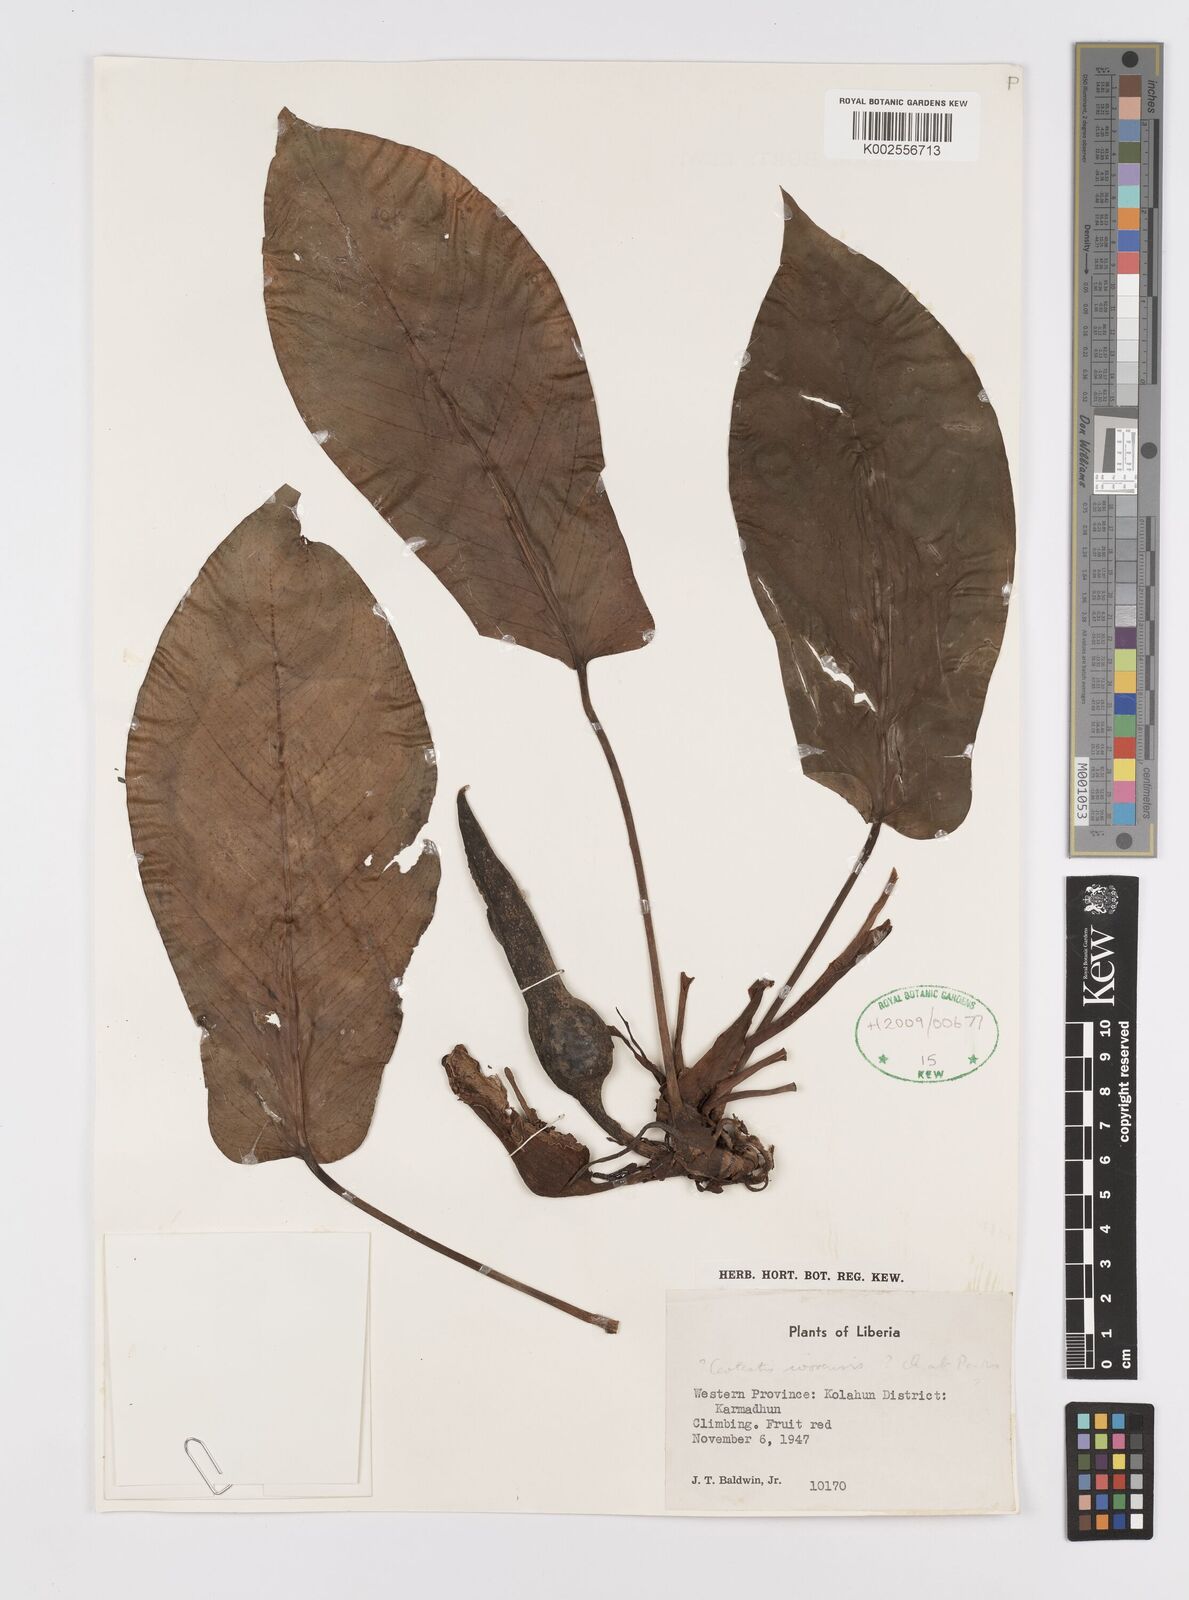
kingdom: Plantae
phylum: Tracheophyta
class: Liliopsida
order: Alismatales
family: Araceae
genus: Cercestis
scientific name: Cercestis ivorensis
